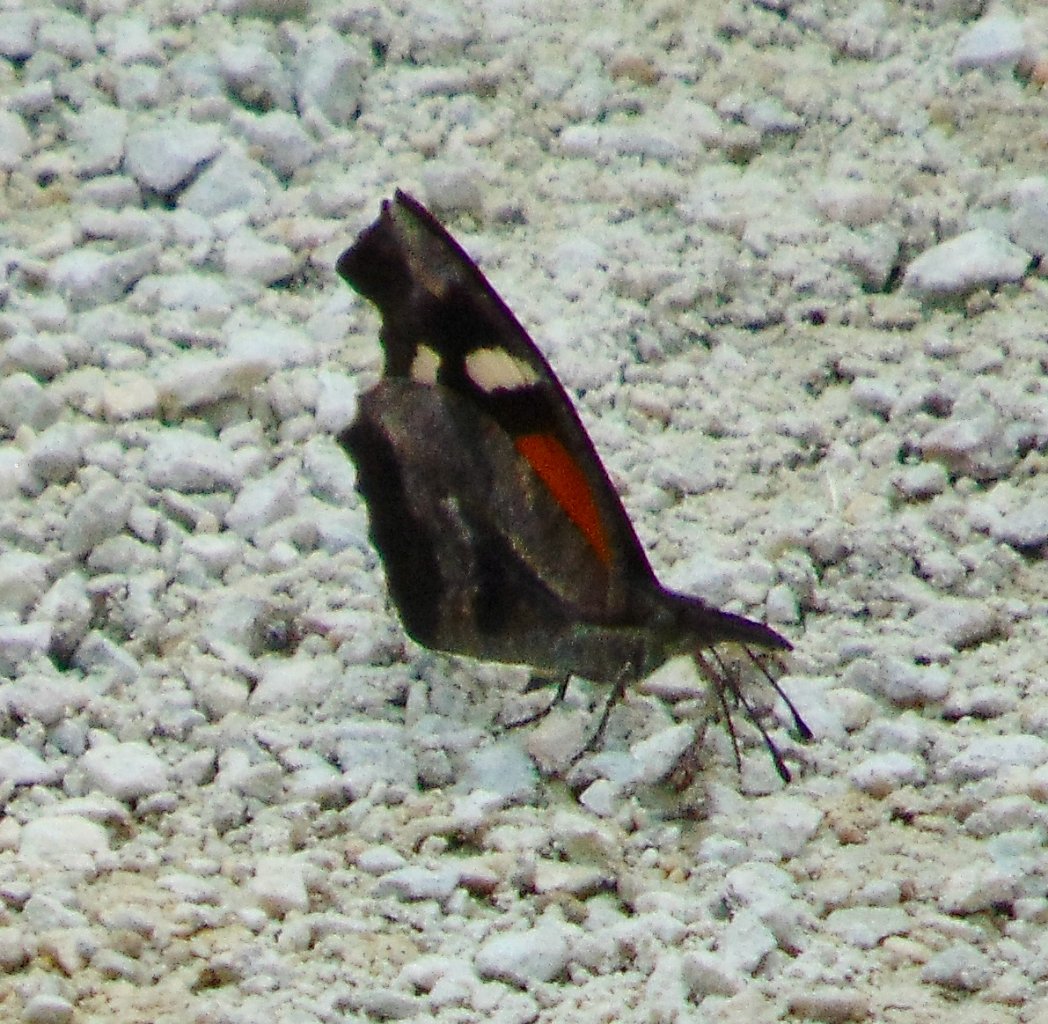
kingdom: Animalia
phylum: Arthropoda
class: Insecta
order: Lepidoptera
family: Nymphalidae
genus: Libytheana
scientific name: Libytheana carinenta
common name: American Snout
